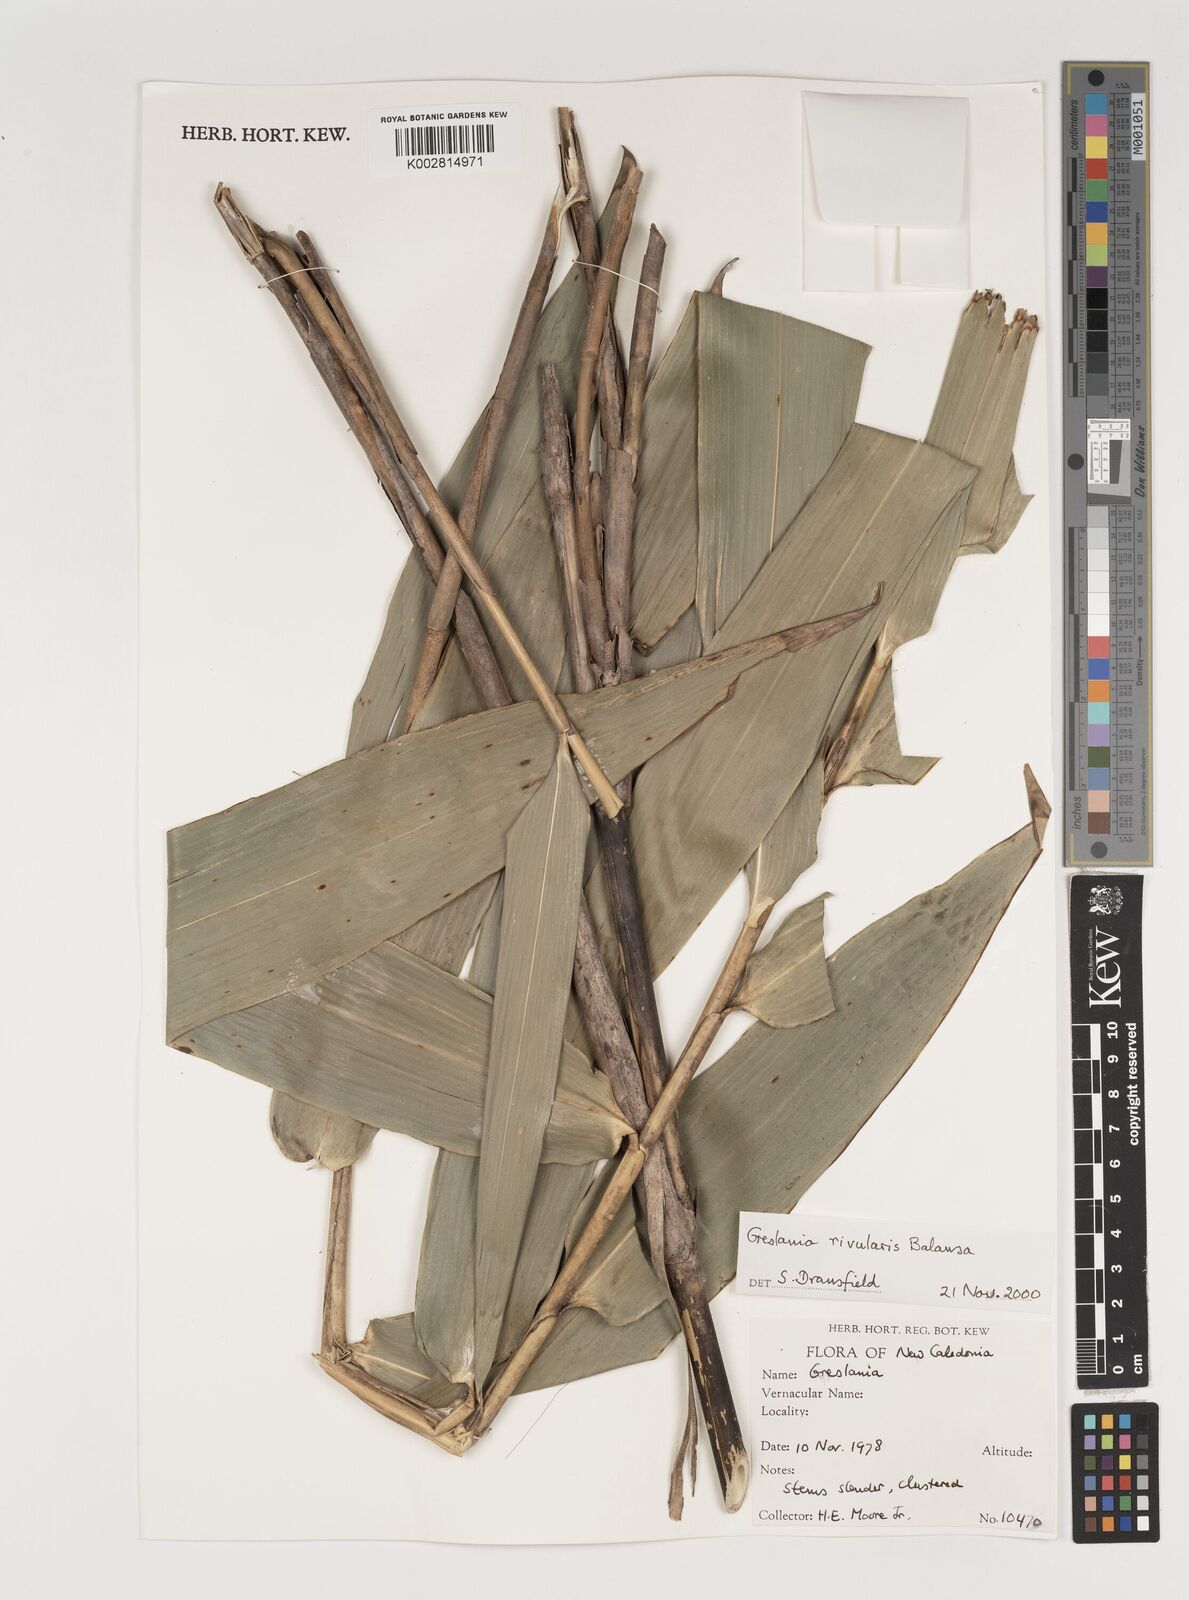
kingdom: Plantae
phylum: Tracheophyta
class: Liliopsida
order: Poales
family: Poaceae
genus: Greslania
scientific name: Greslania rivularis
